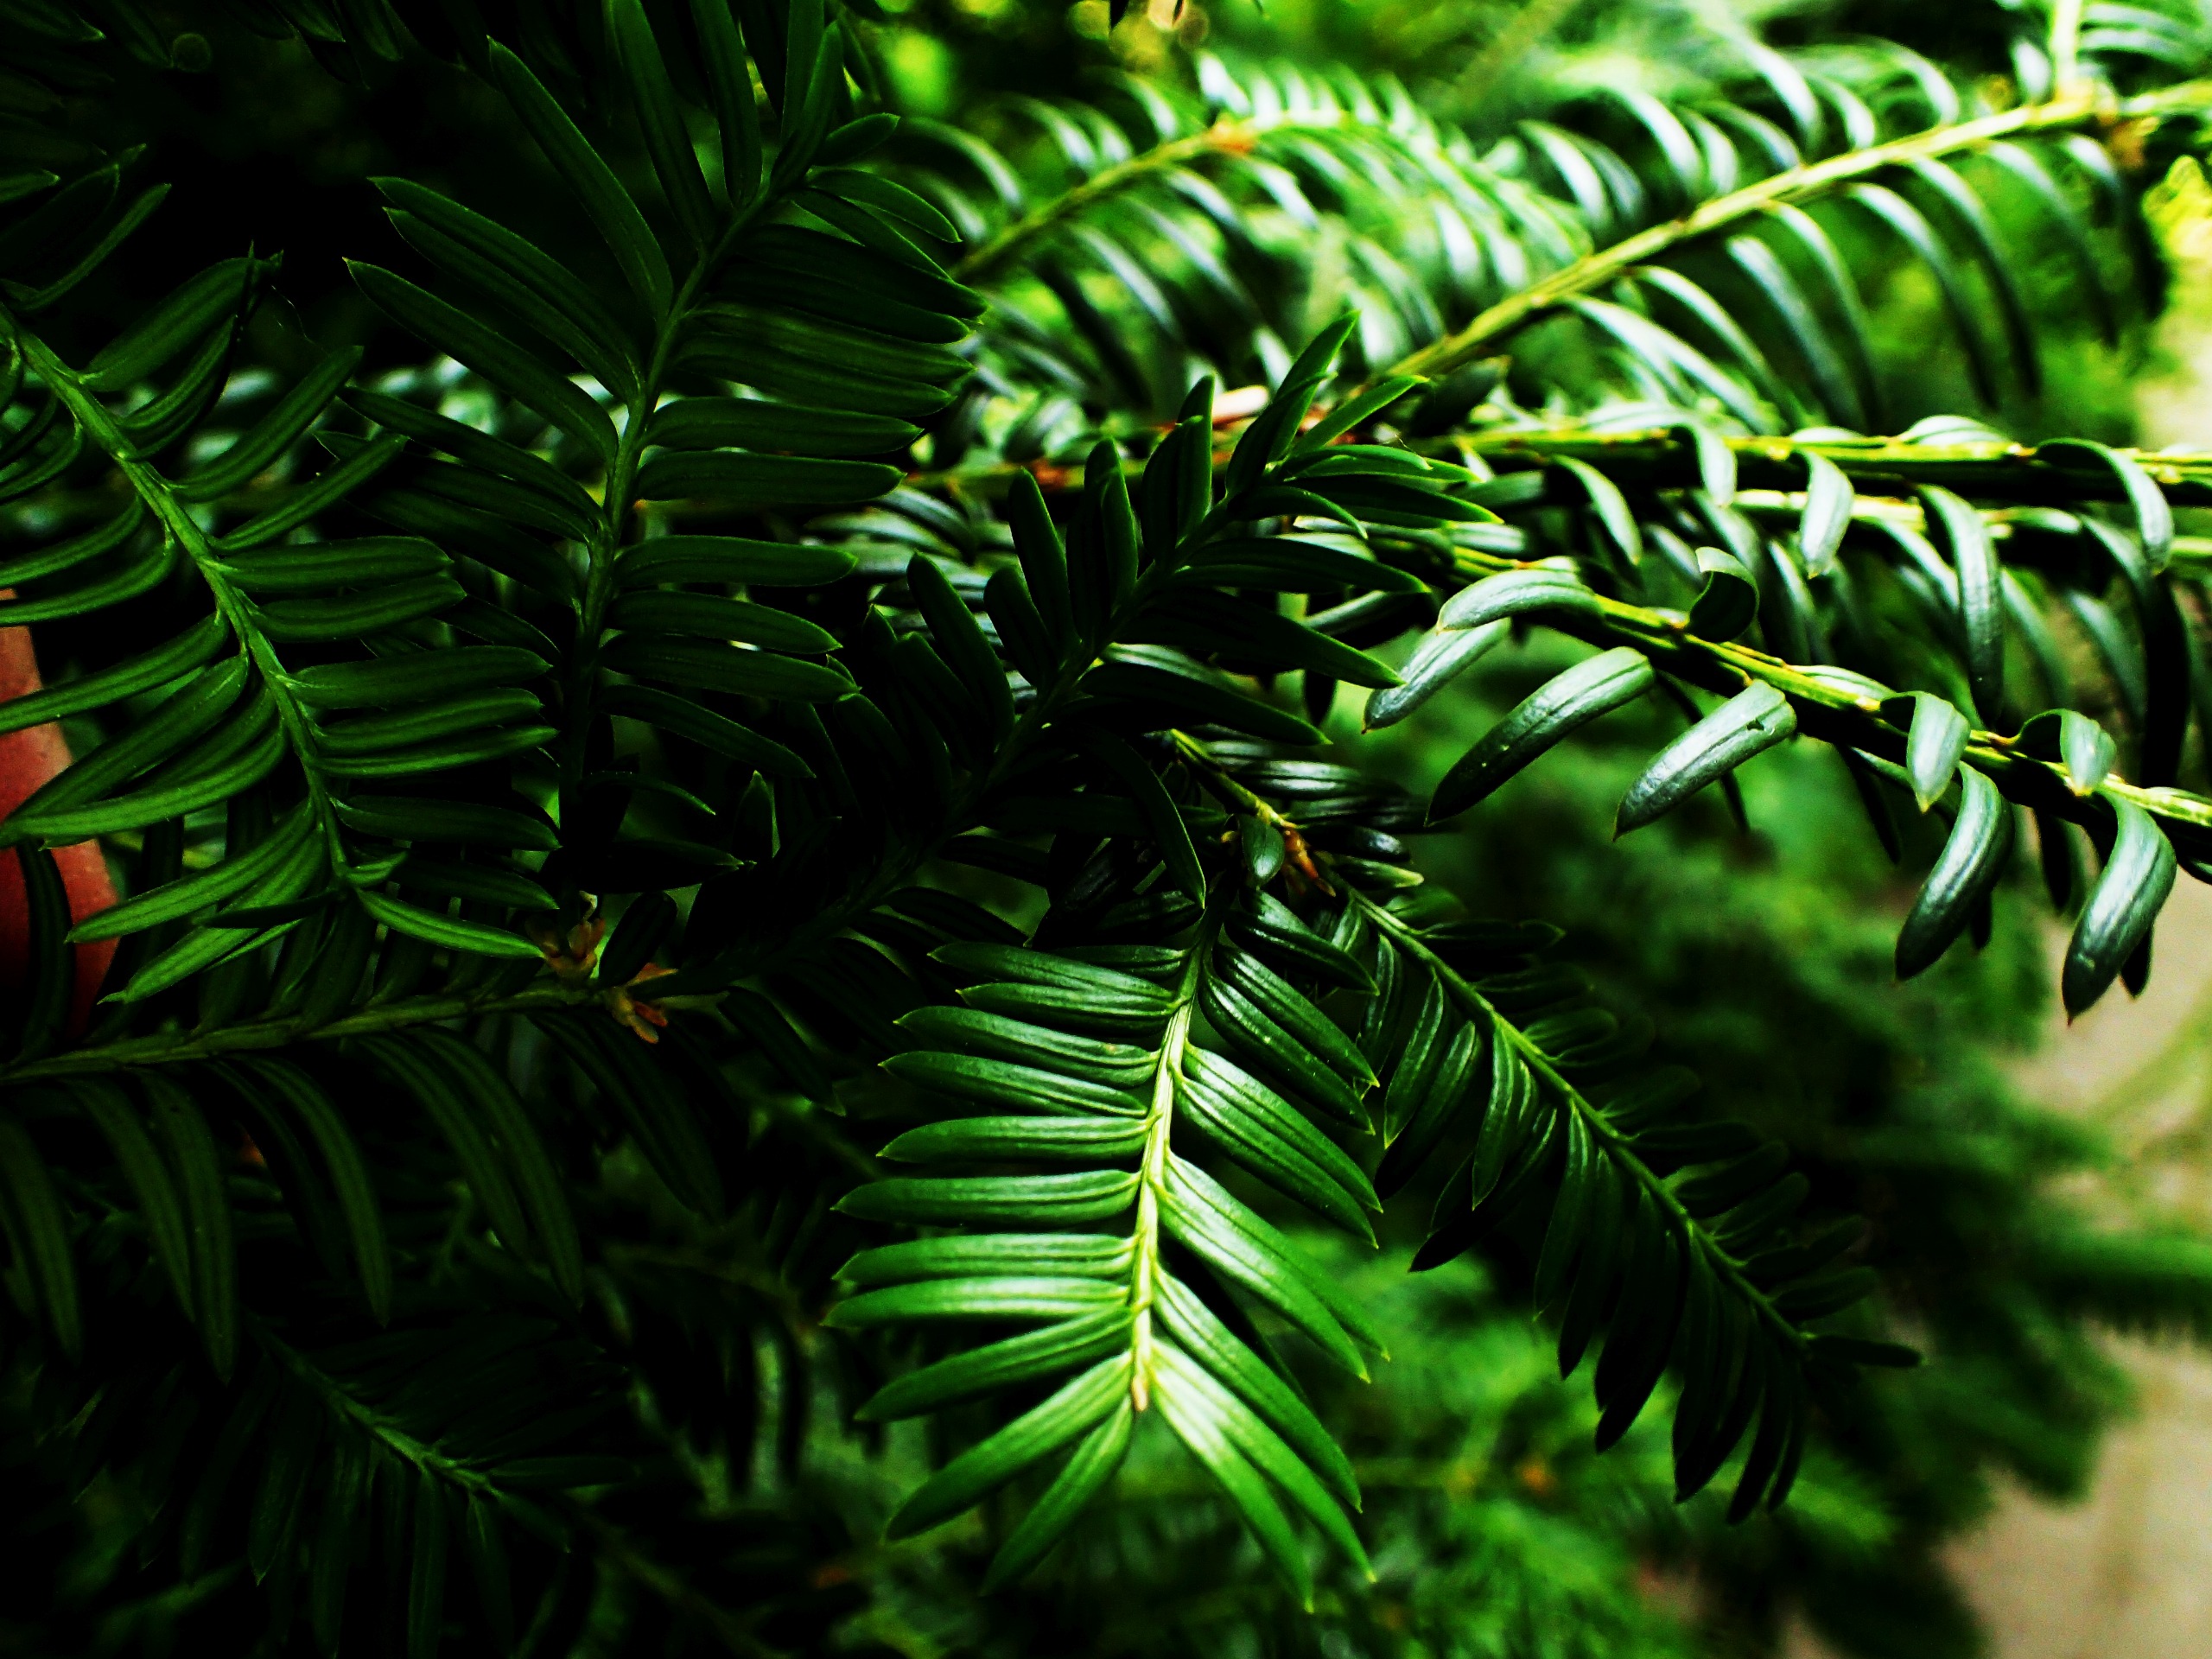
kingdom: Plantae
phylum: Tracheophyta
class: Pinopsida
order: Pinales
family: Taxaceae
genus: Taxus
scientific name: Taxus baccata
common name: Almindelig taks
